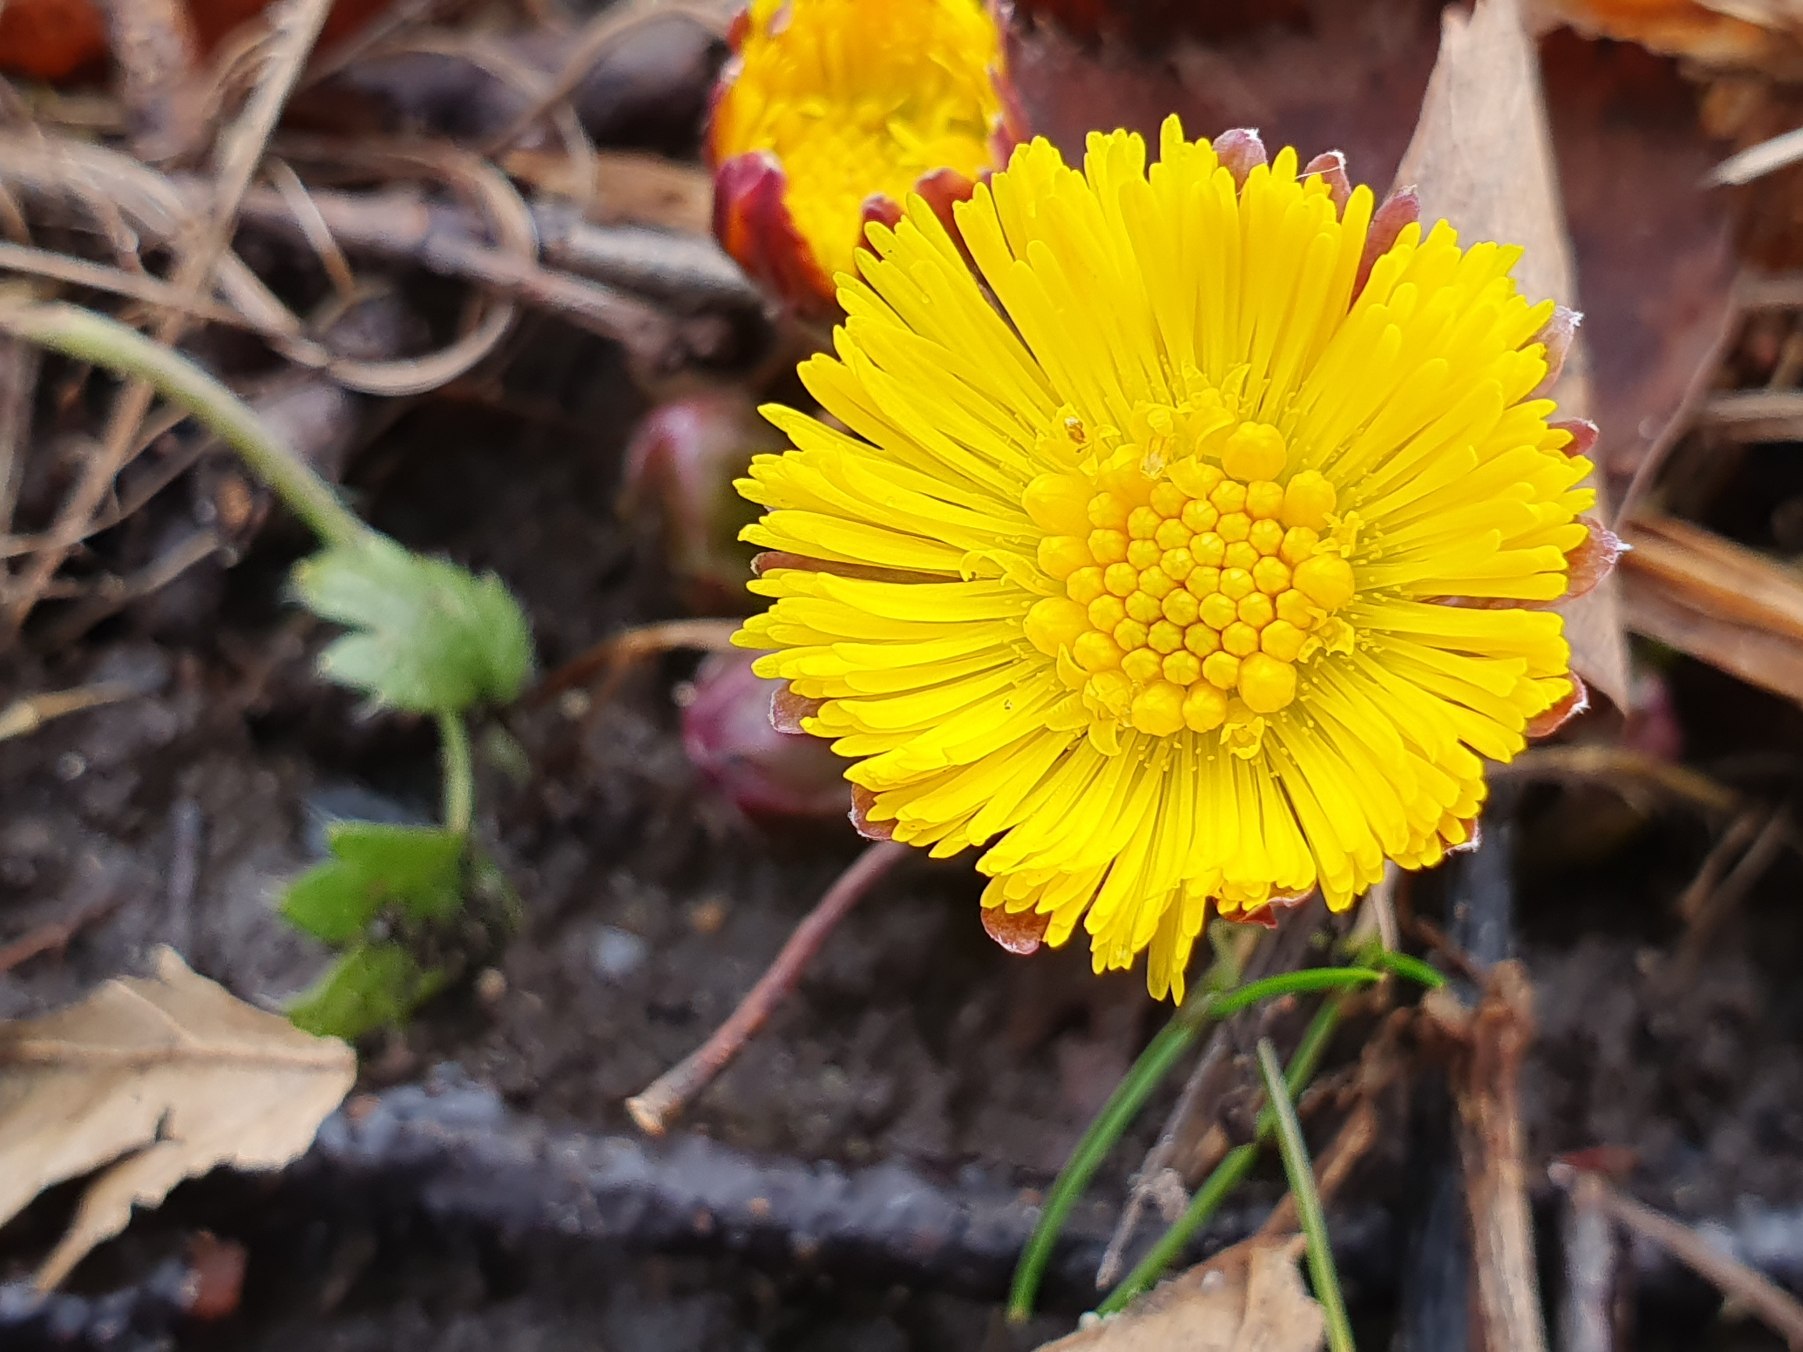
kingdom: Plantae
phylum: Tracheophyta
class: Magnoliopsida
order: Asterales
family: Asteraceae
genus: Tussilago
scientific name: Tussilago farfara
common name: Følfod
